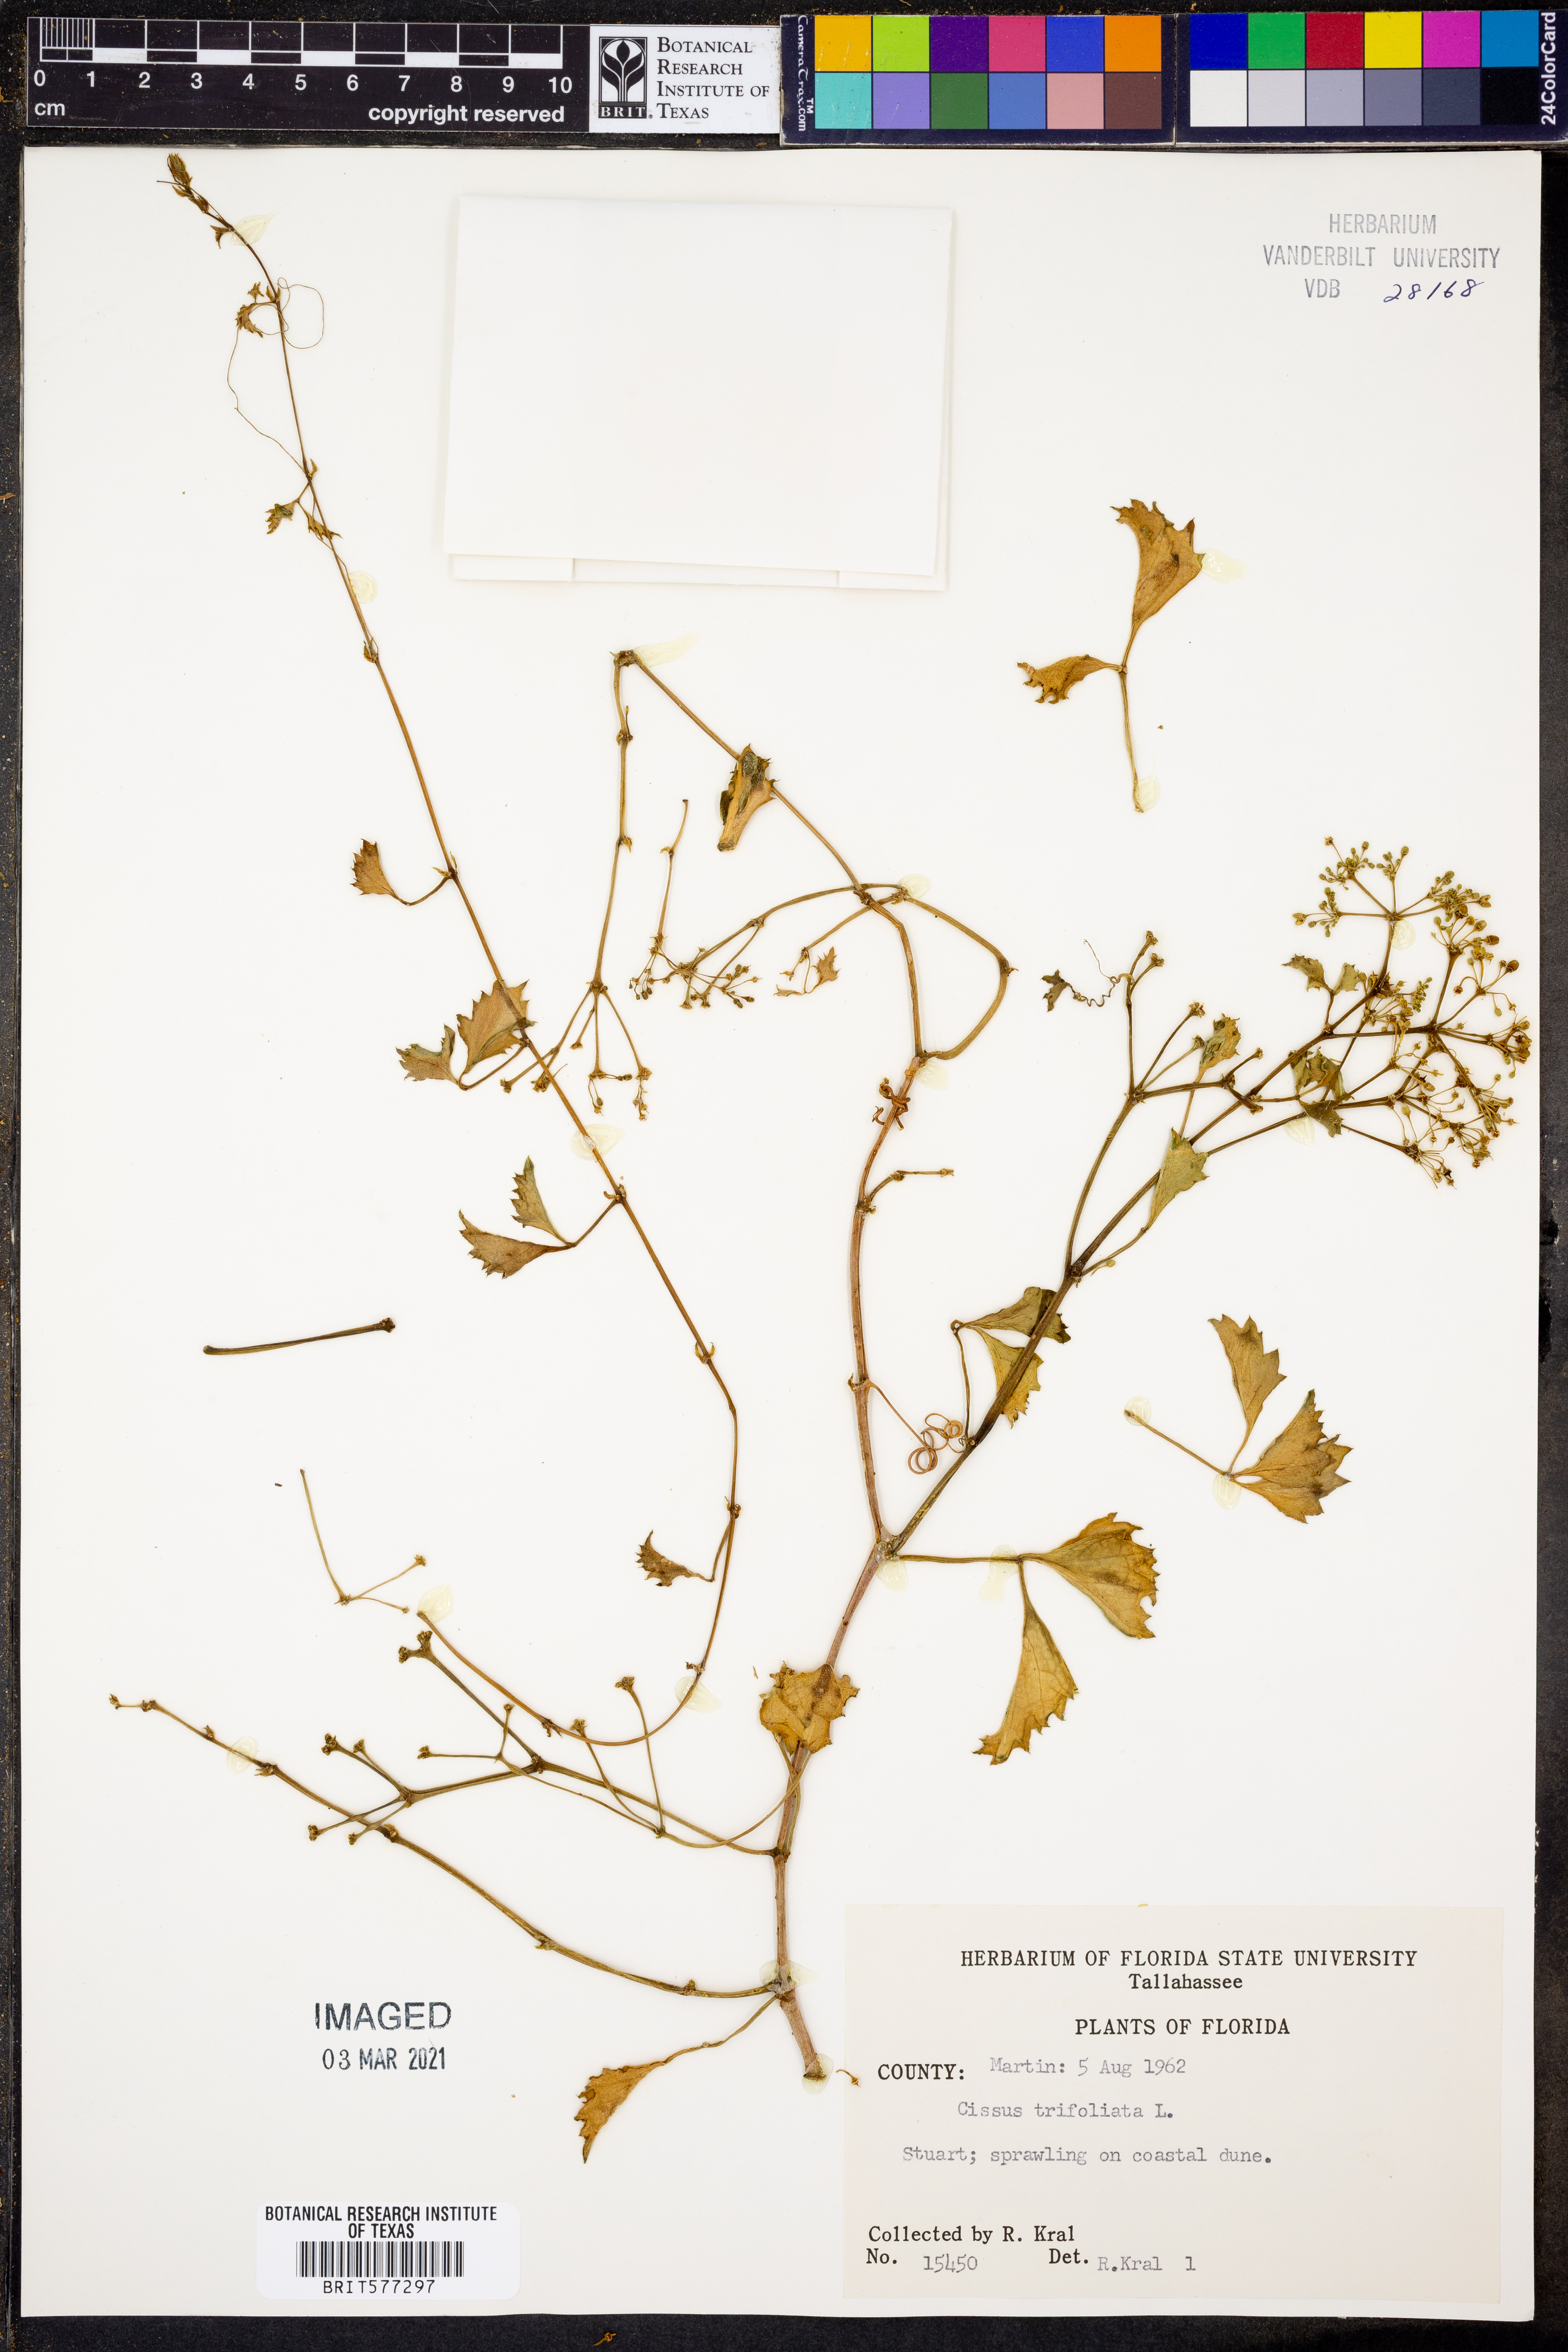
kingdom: Plantae
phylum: Tracheophyta
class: Magnoliopsida
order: Vitales
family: Vitaceae
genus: Cissus
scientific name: Cissus trifoliata
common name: Vine-sorrel
